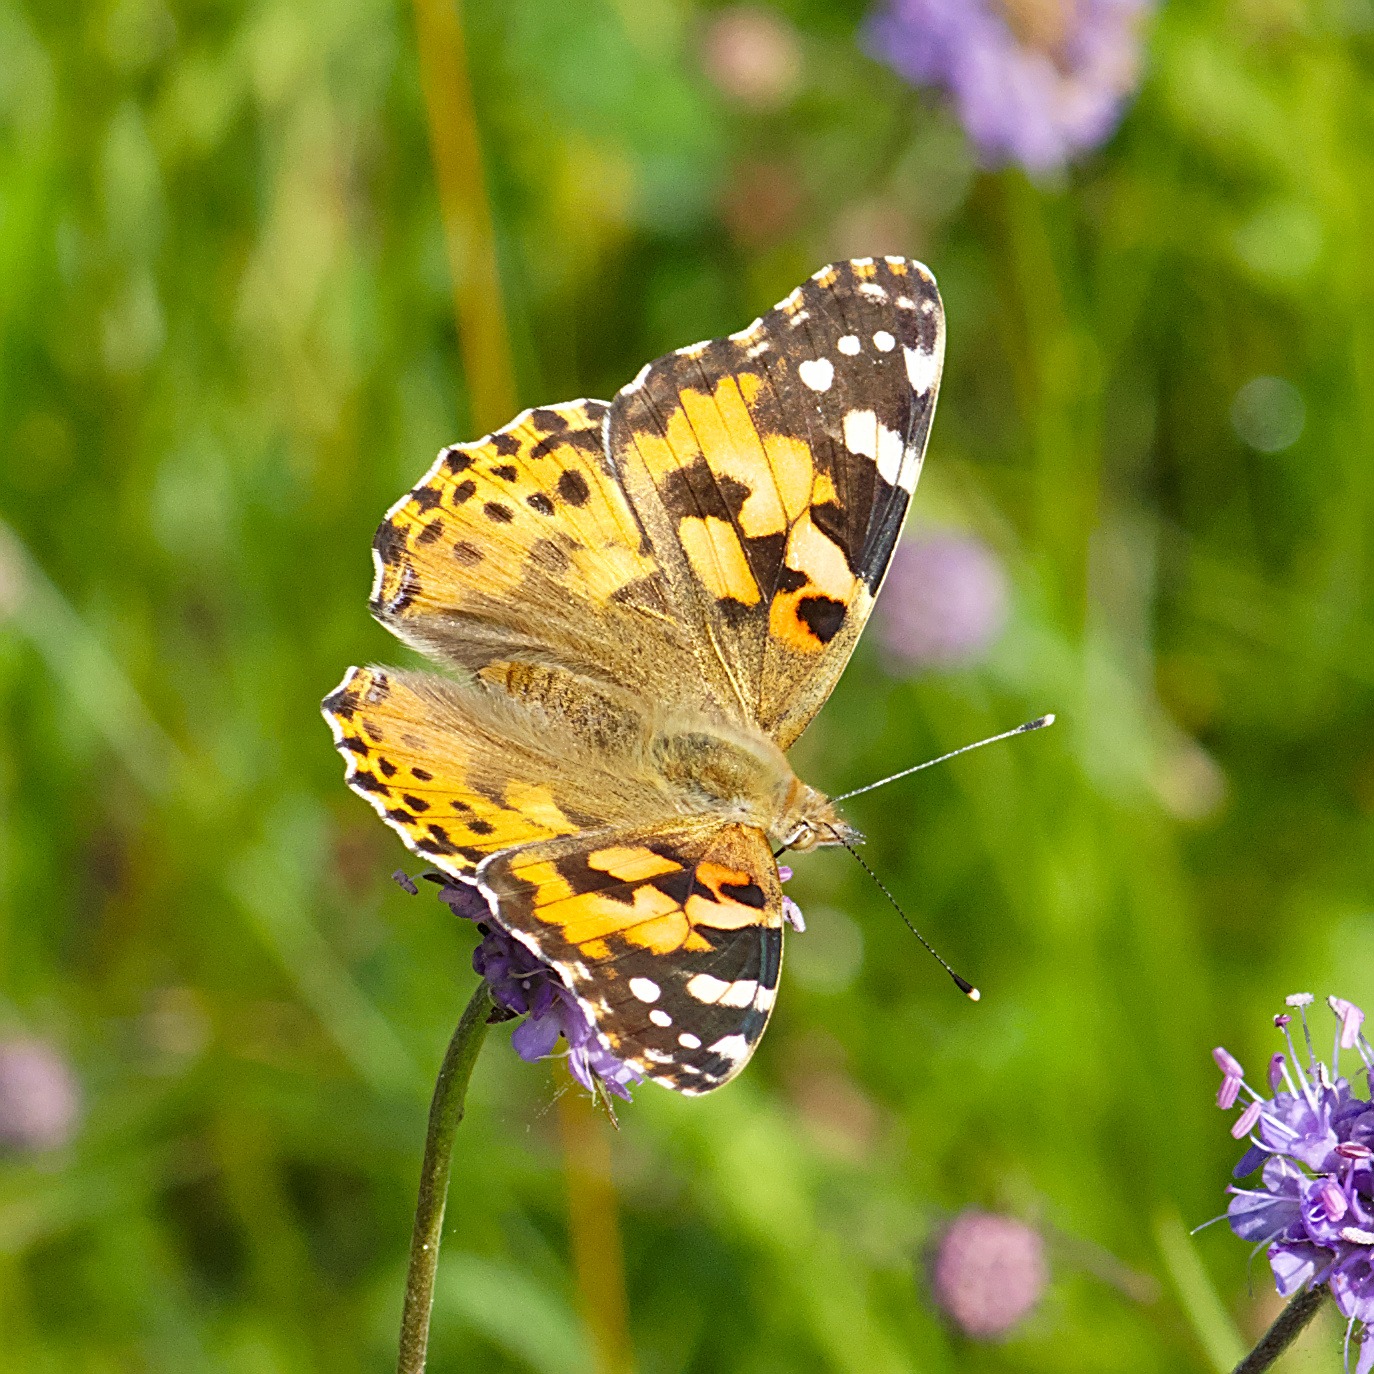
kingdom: Animalia
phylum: Arthropoda
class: Insecta
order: Lepidoptera
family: Nymphalidae
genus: Vanessa
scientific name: Vanessa cardui
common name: Tidselsommerfugl
